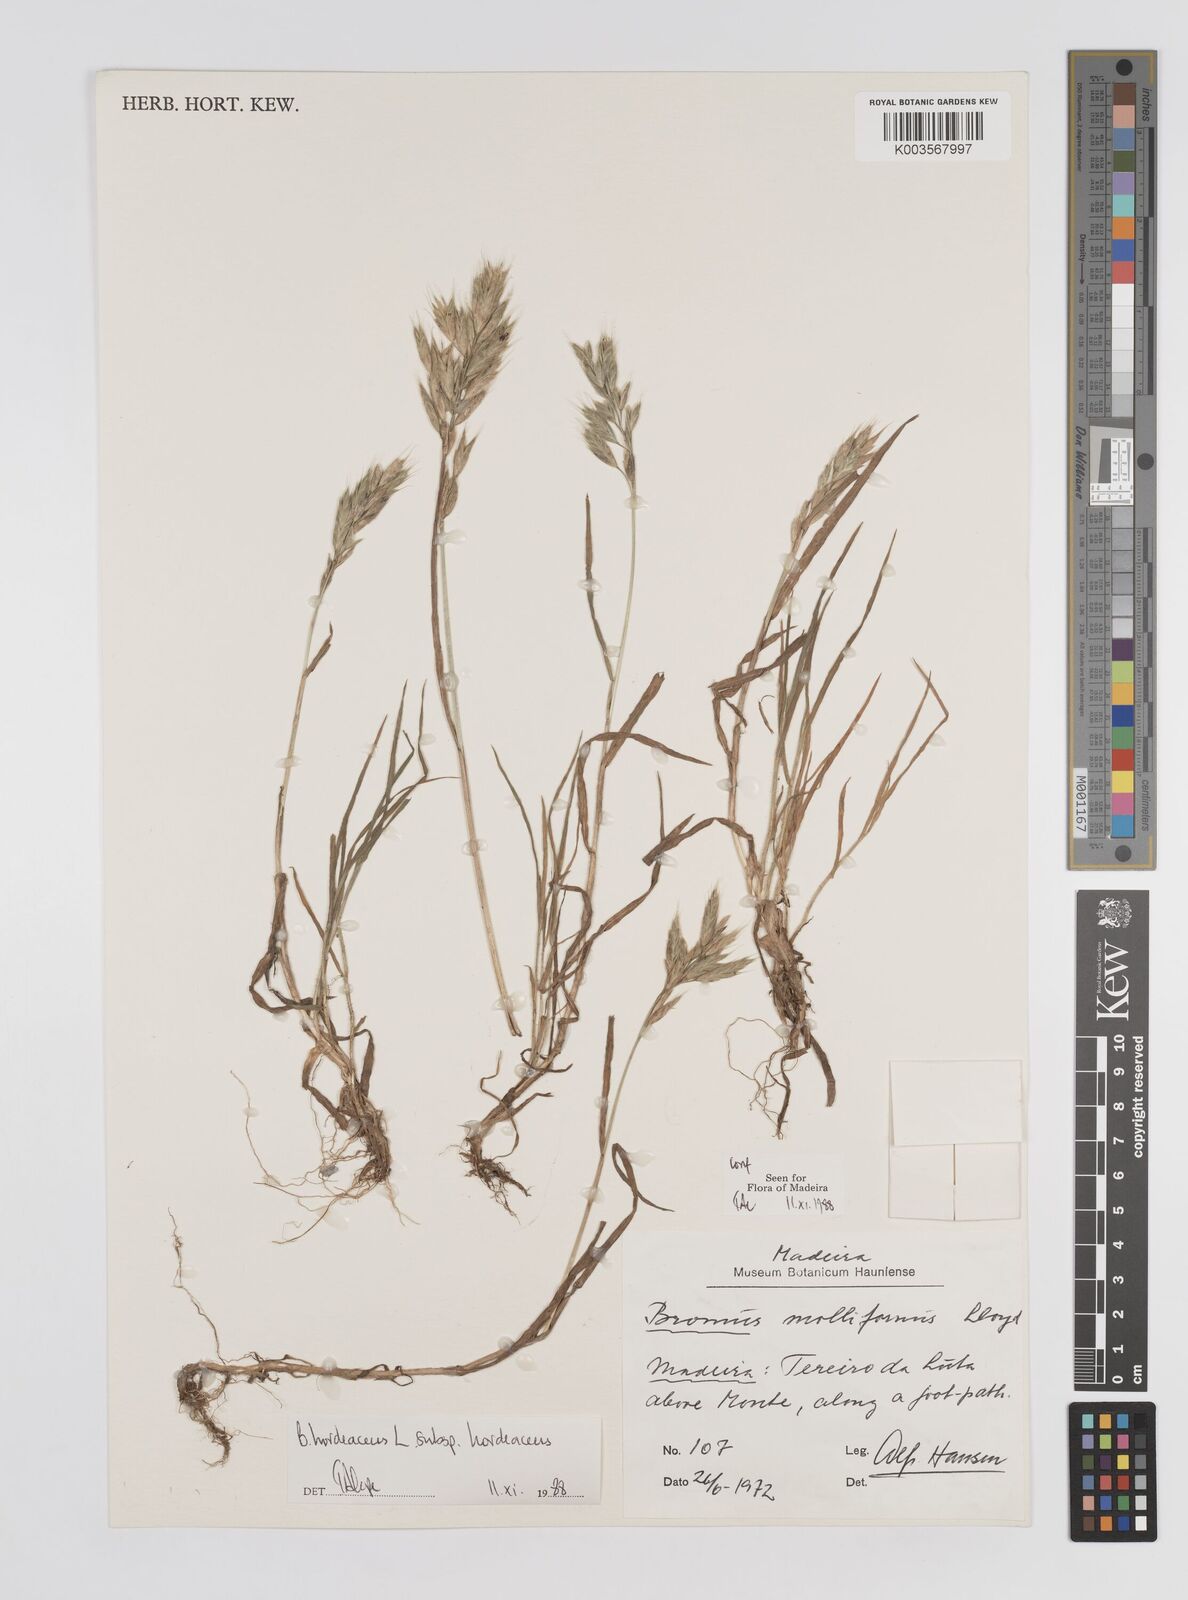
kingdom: Plantae
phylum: Tracheophyta
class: Liliopsida
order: Poales
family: Poaceae
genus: Bromus
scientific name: Bromus
